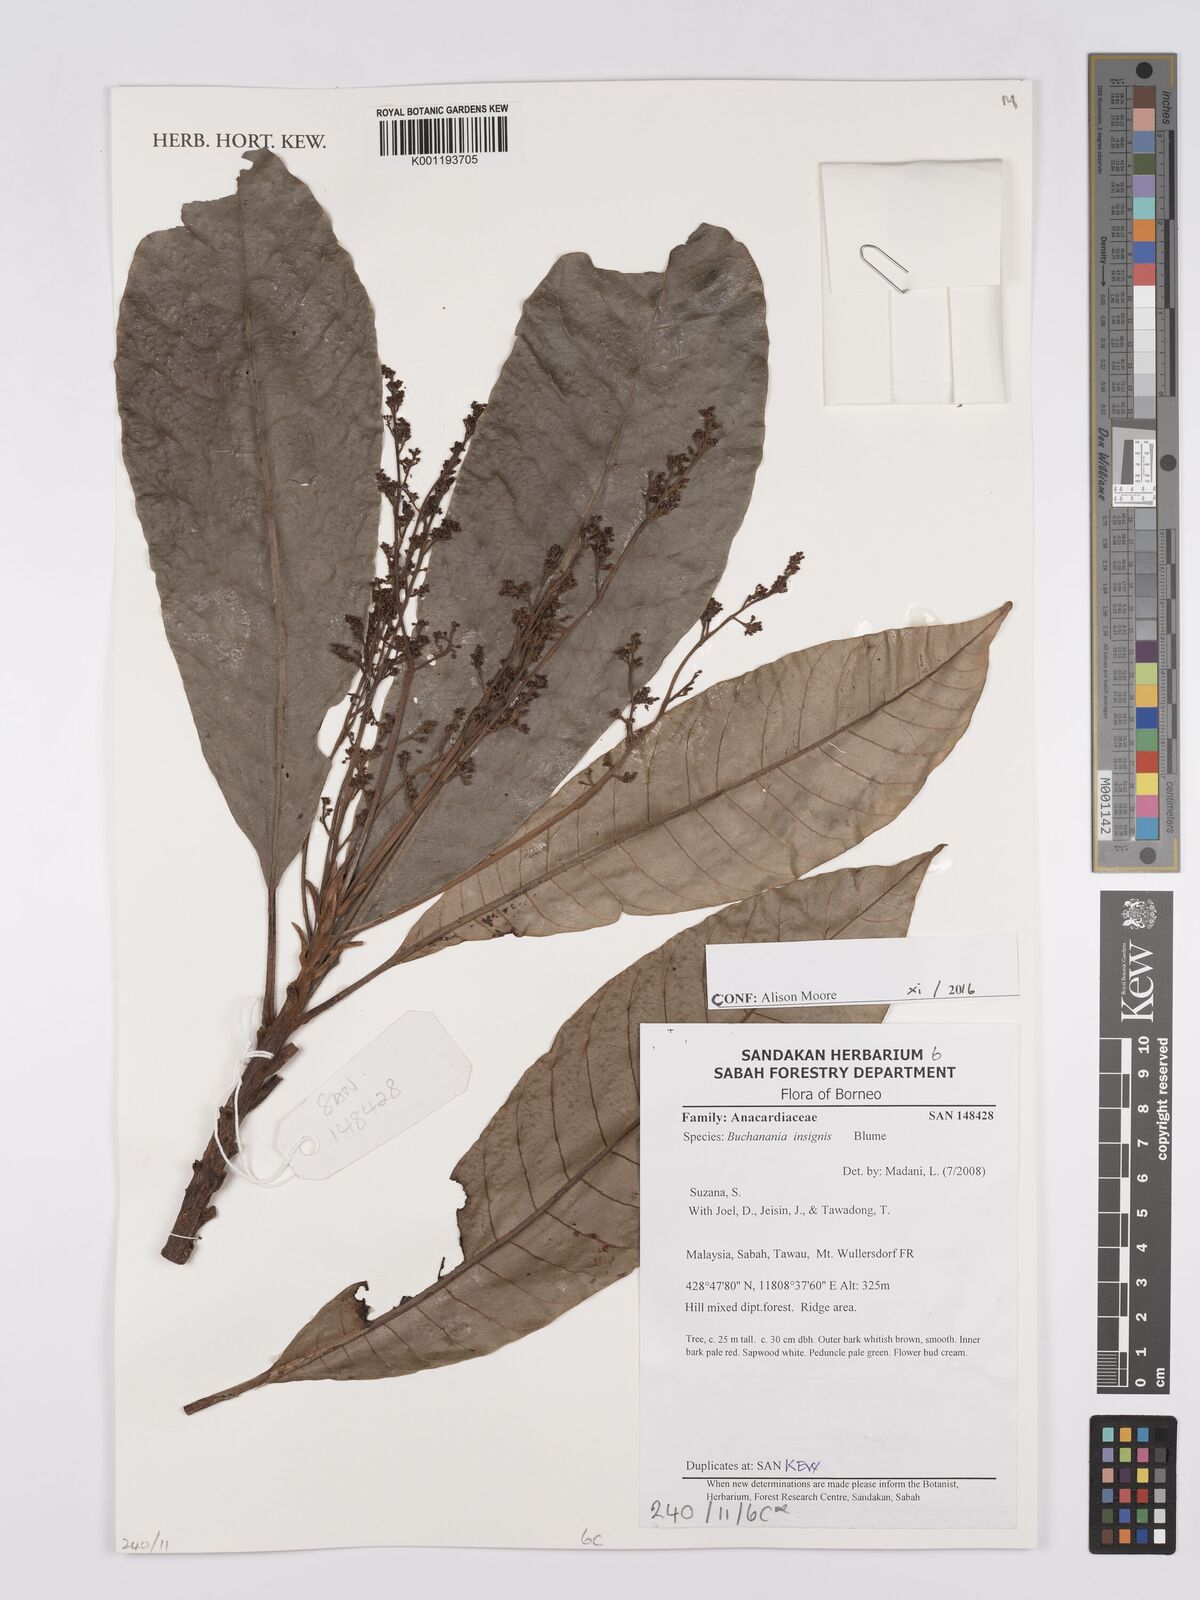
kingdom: Plantae
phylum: Tracheophyta
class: Magnoliopsida
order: Sapindales
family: Anacardiaceae
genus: Buchanania
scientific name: Buchanania insignis
